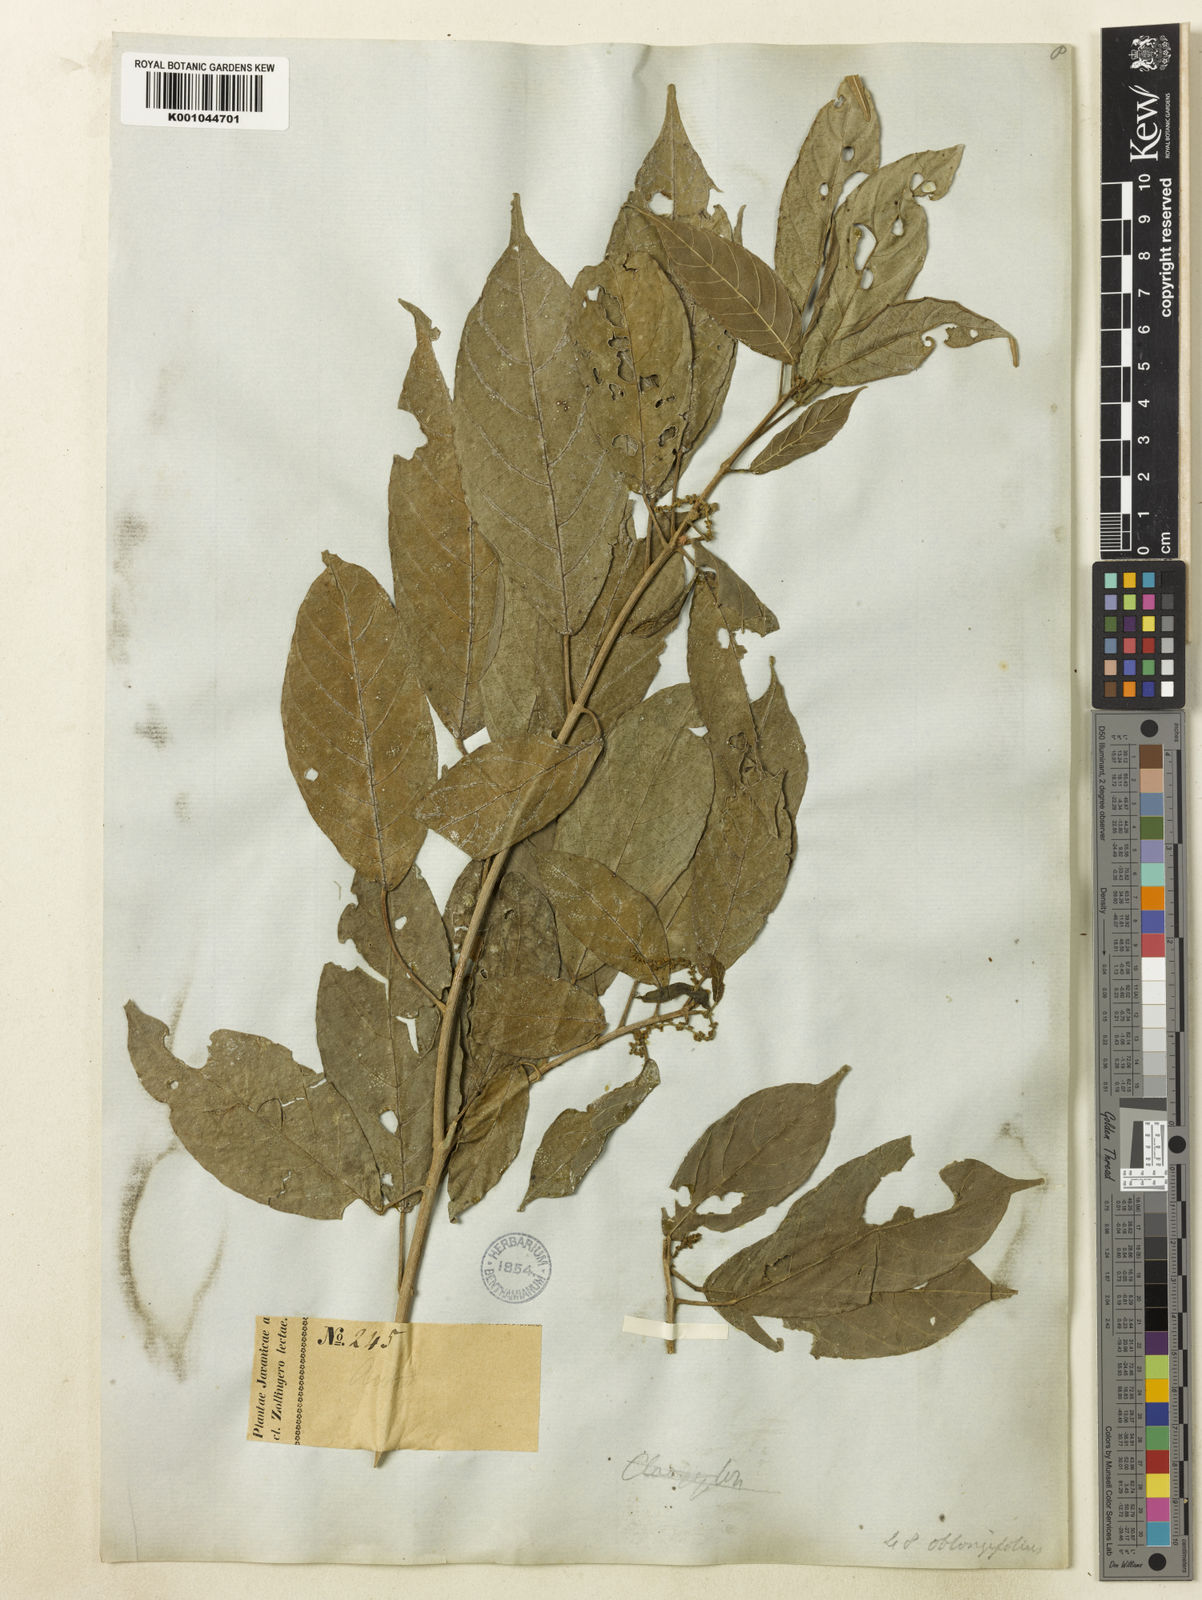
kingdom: Plantae
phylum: Tracheophyta
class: Magnoliopsida
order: Malpighiales
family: Euphorbiaceae
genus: Mallotus
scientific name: Mallotus peltatus
